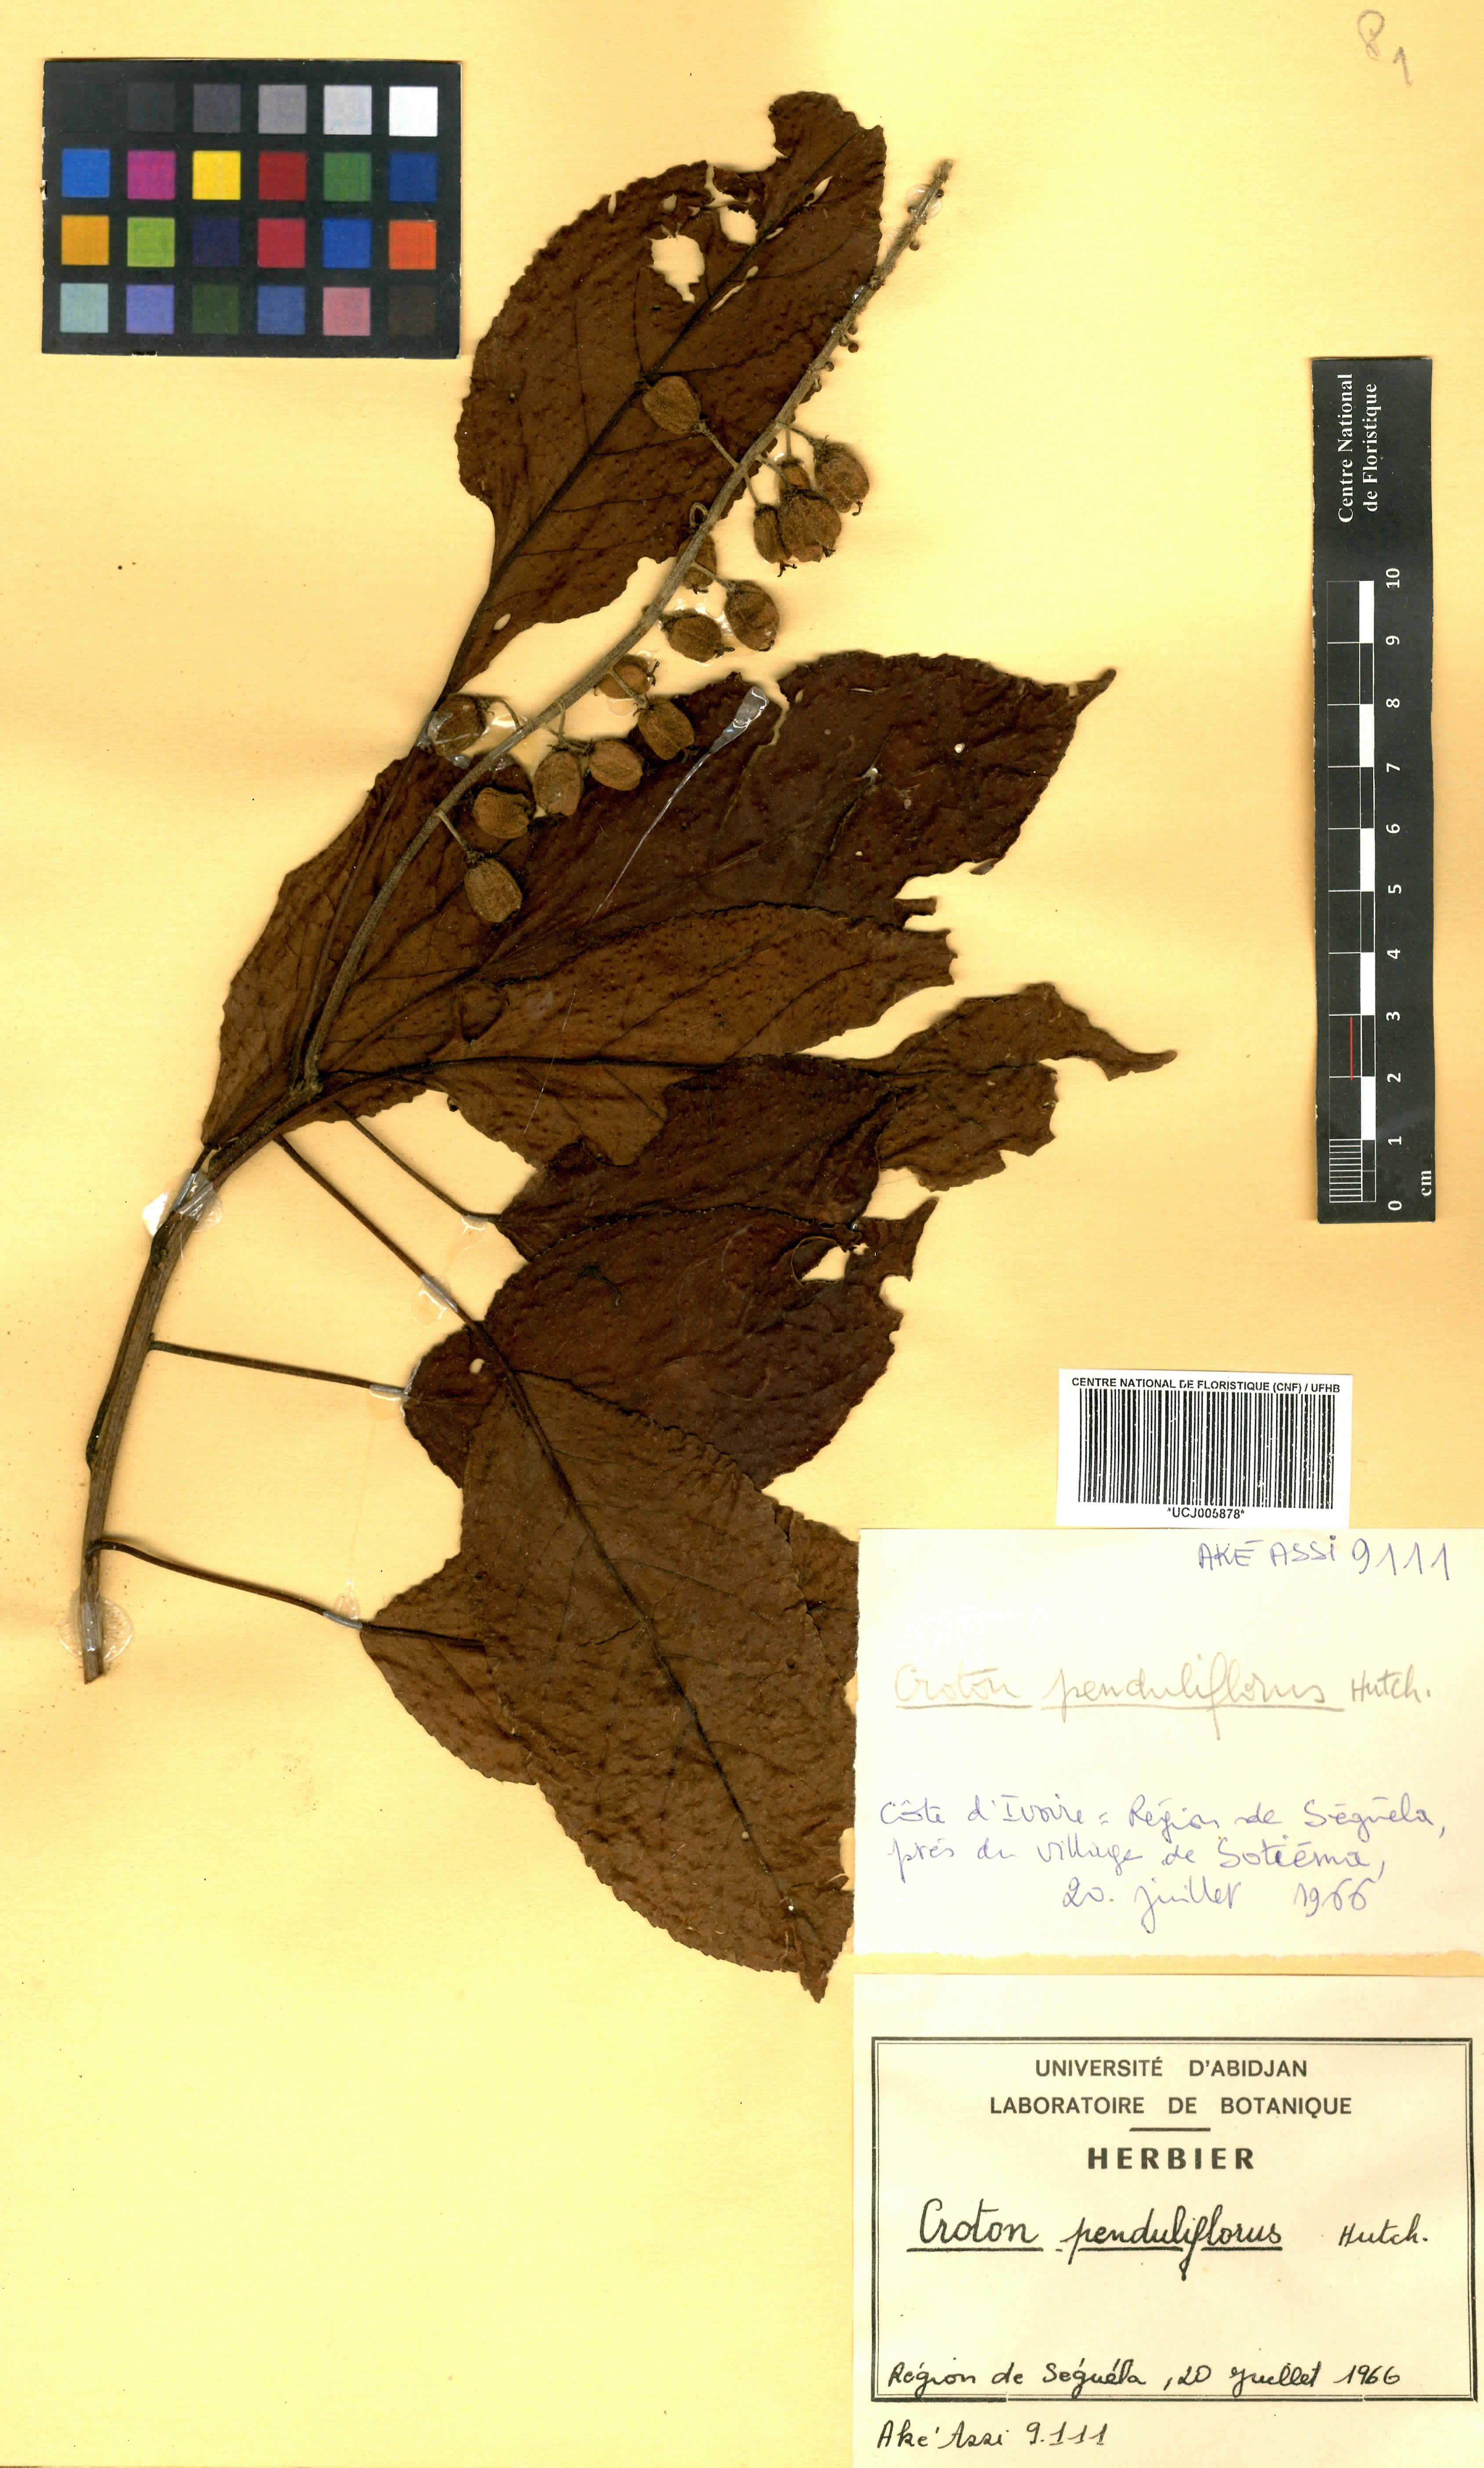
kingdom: Plantae
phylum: Tracheophyta
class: Magnoliopsida
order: Malpighiales
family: Euphorbiaceae
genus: Croton
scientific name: Croton penduliflorus
